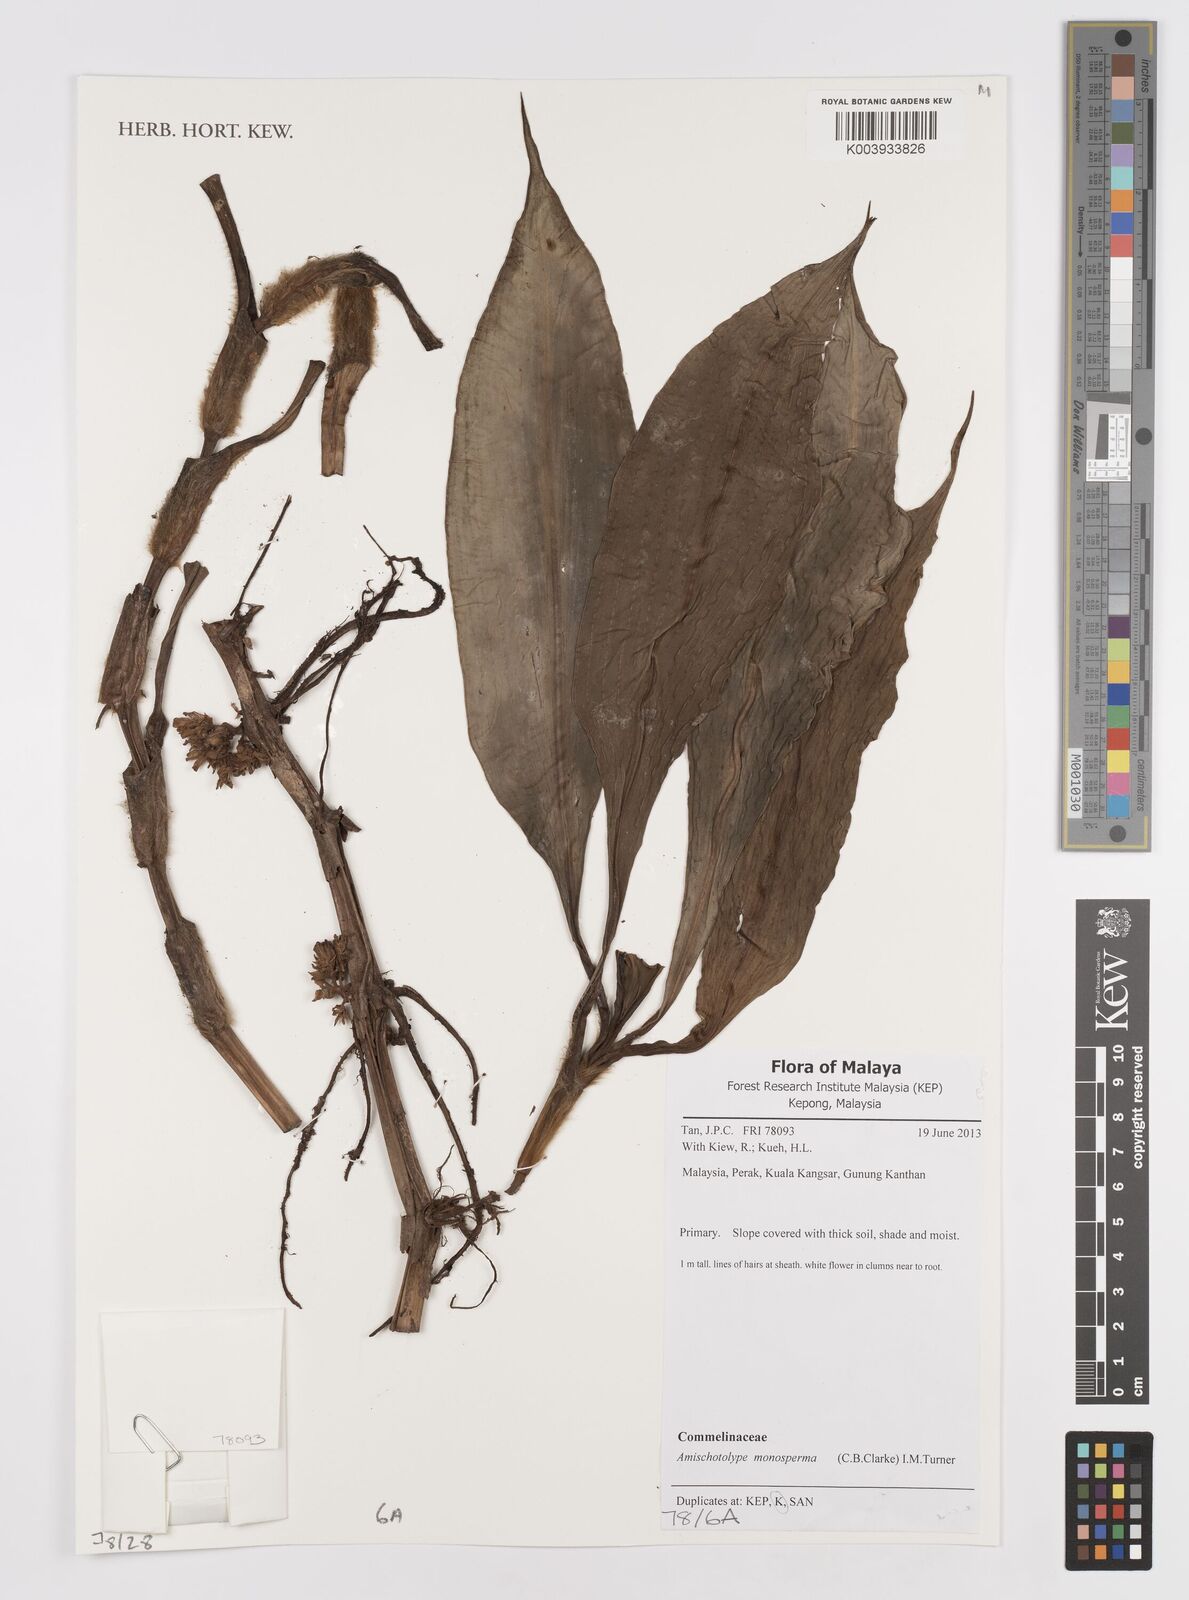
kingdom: Plantae
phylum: Tracheophyta
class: Liliopsida
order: Commelinales
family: Commelinaceae
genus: Amischotolype
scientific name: Amischotolype monosperma
